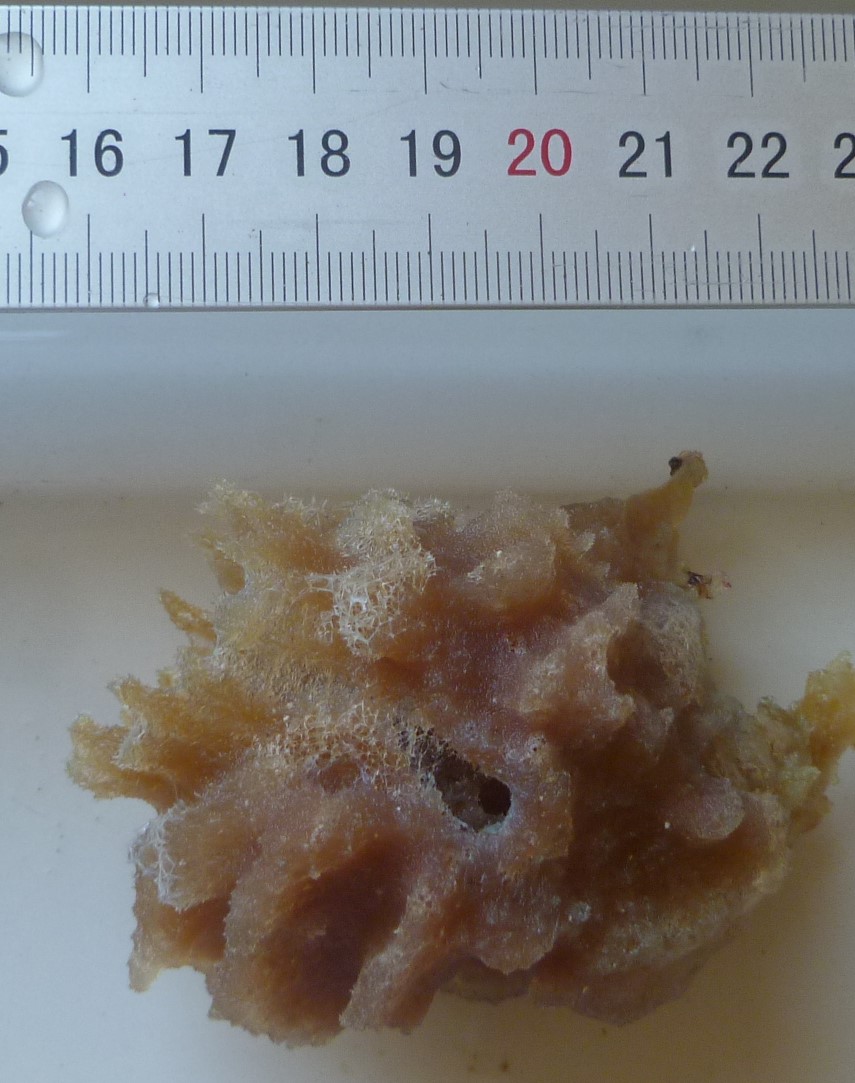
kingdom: Animalia
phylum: Porifera
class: Demospongiae
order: Haplosclerida
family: Callyspongiidae
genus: Callyspongia
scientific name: Callyspongia plicifera
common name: Azure vase sponge
